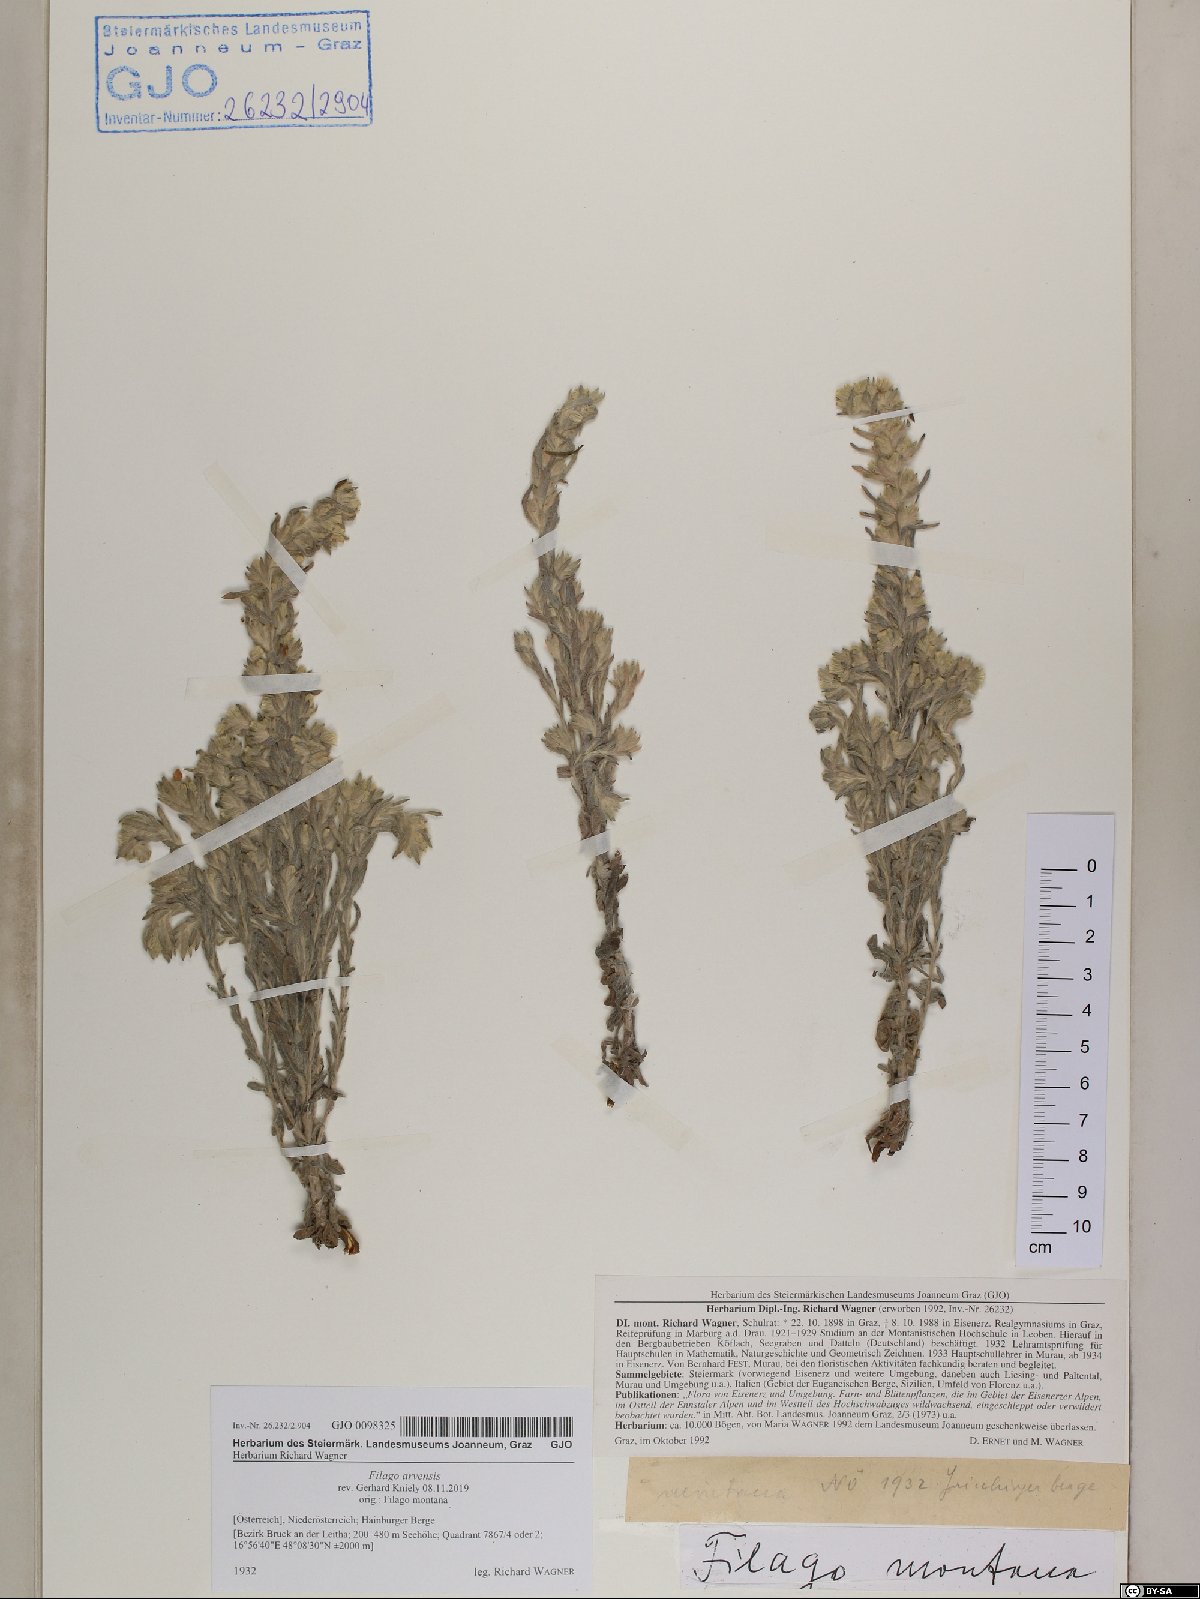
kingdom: Plantae
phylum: Tracheophyta
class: Magnoliopsida
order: Asterales
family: Asteraceae
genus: Filago
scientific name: Filago arvensis
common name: Field cudweed
